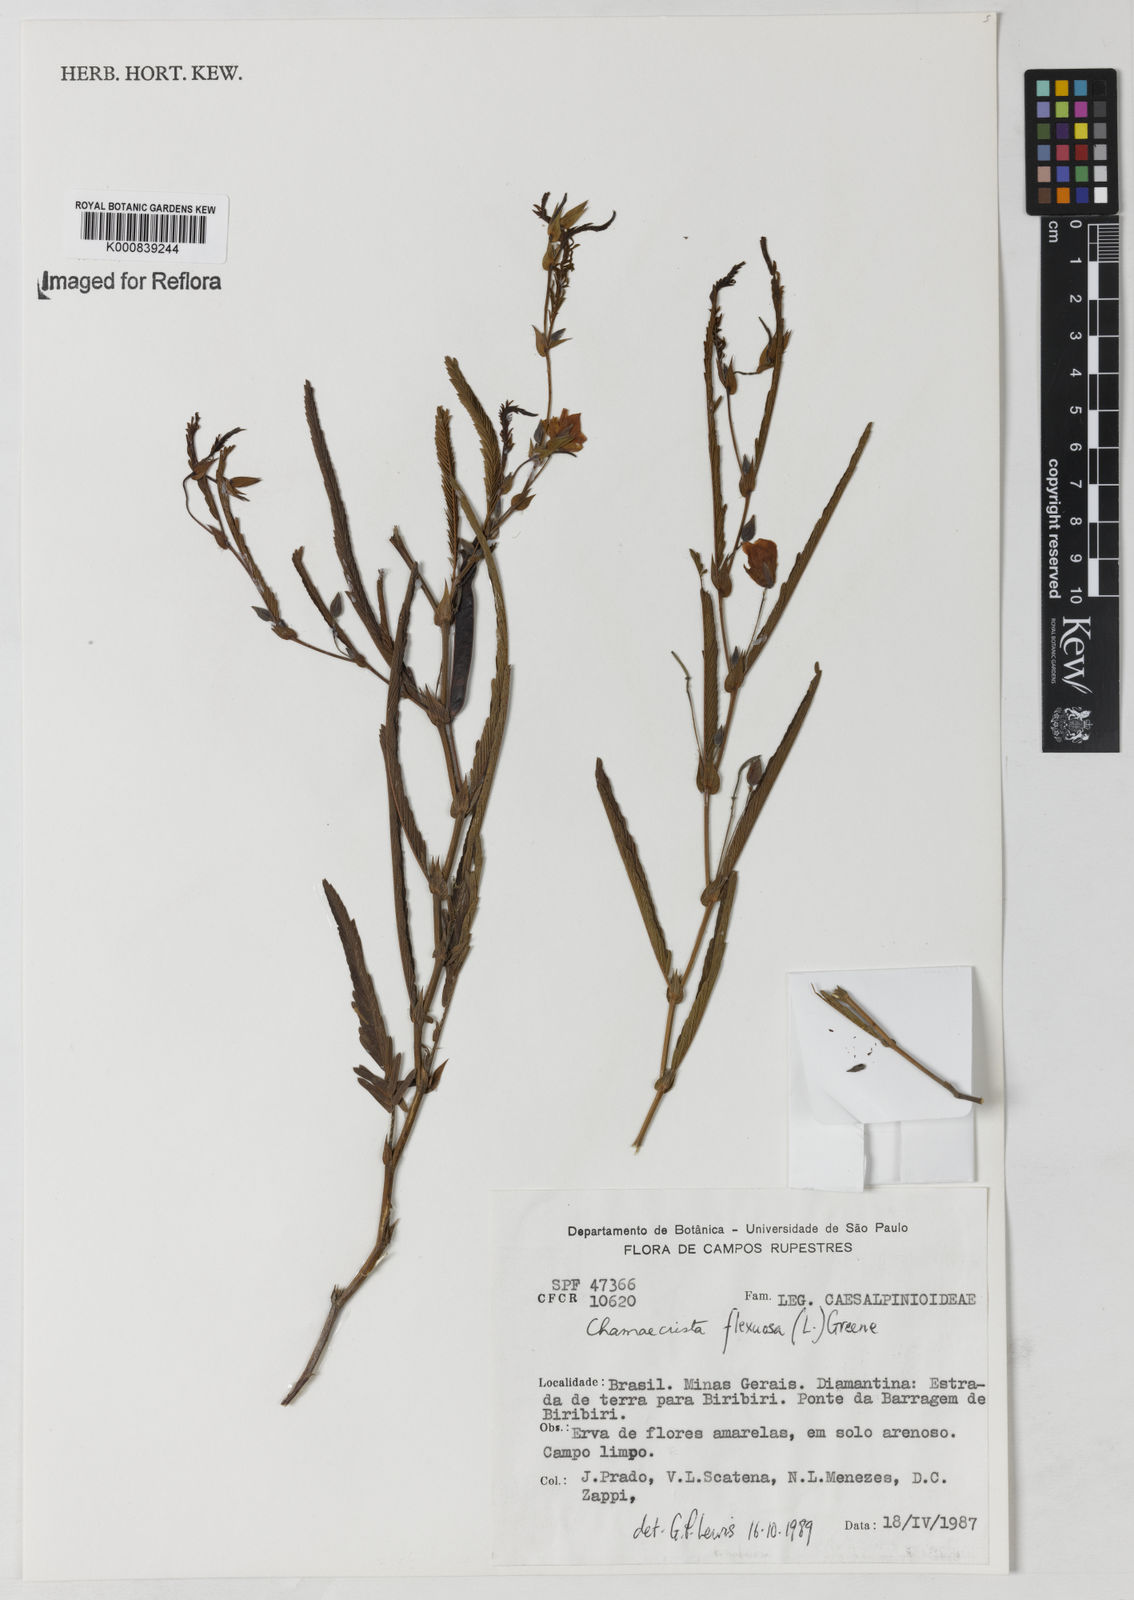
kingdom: Plantae
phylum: Tracheophyta
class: Magnoliopsida
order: Fabales
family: Fabaceae
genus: Chamaecrista
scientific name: Chamaecrista flexuosa
